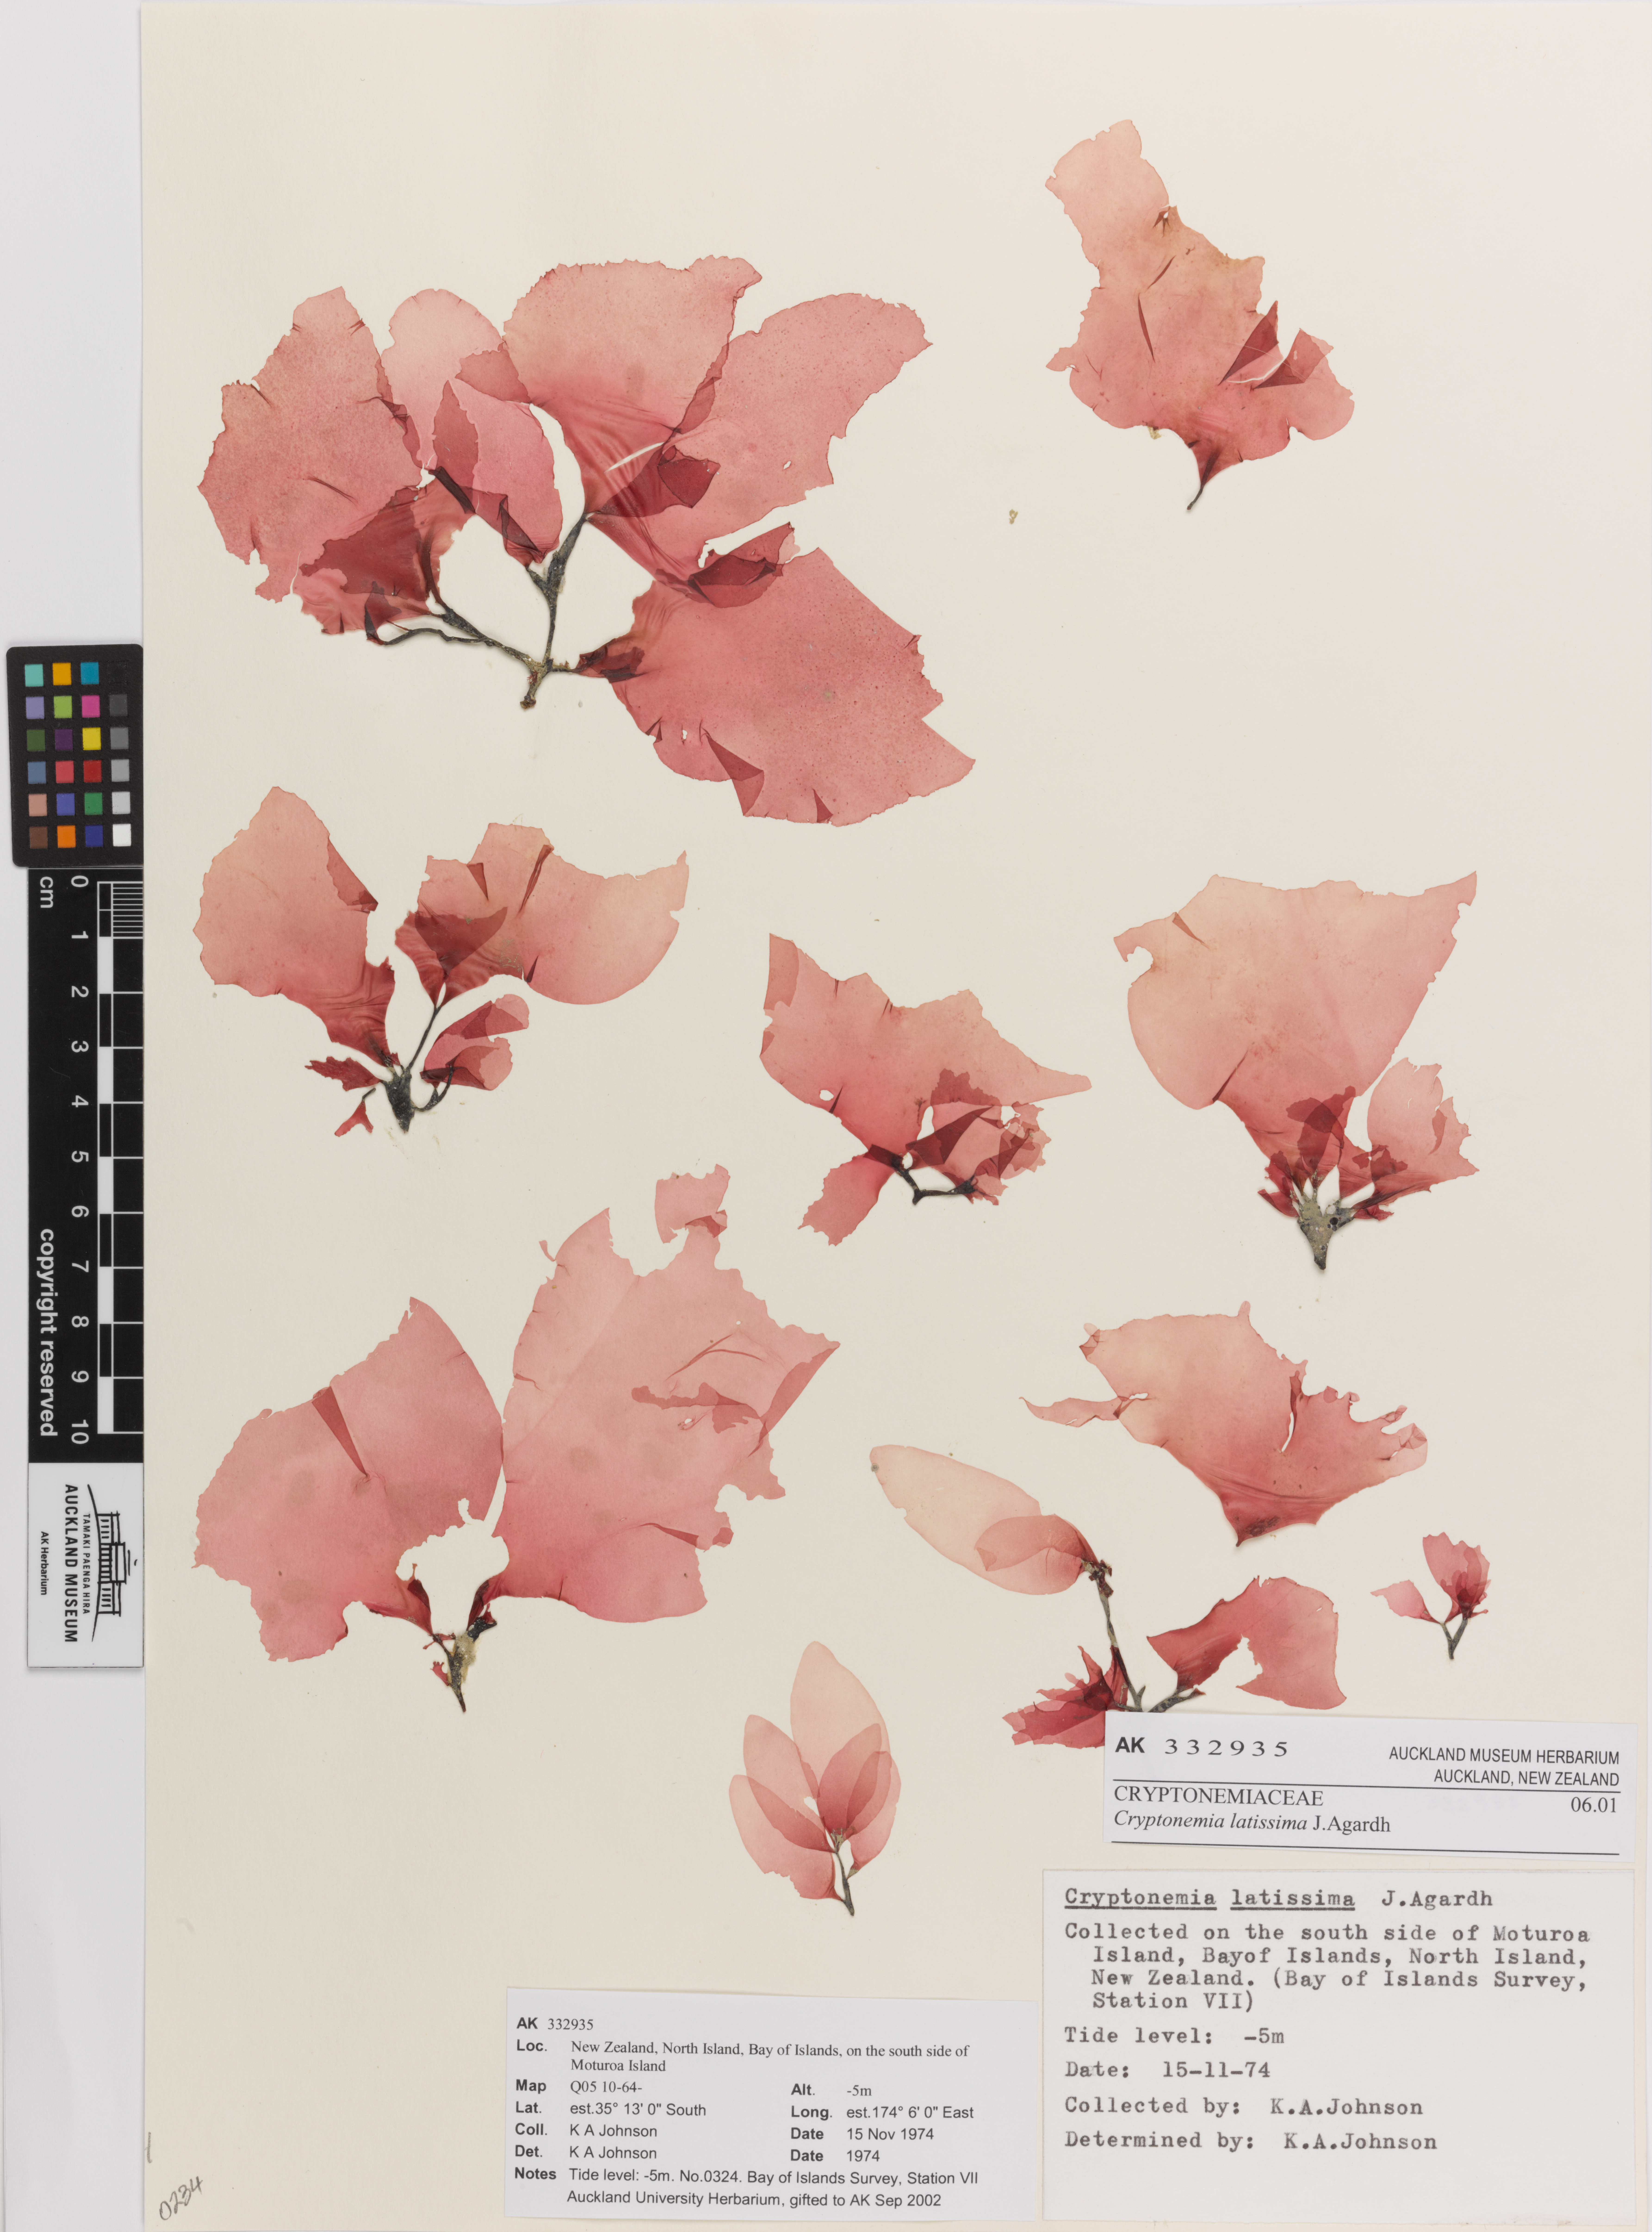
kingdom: Plantae
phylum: Rhodophyta
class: Florideophyceae
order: Halymeniales
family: Halymeniaceae
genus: Cryptonemia
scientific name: Cryptonemia latissima
